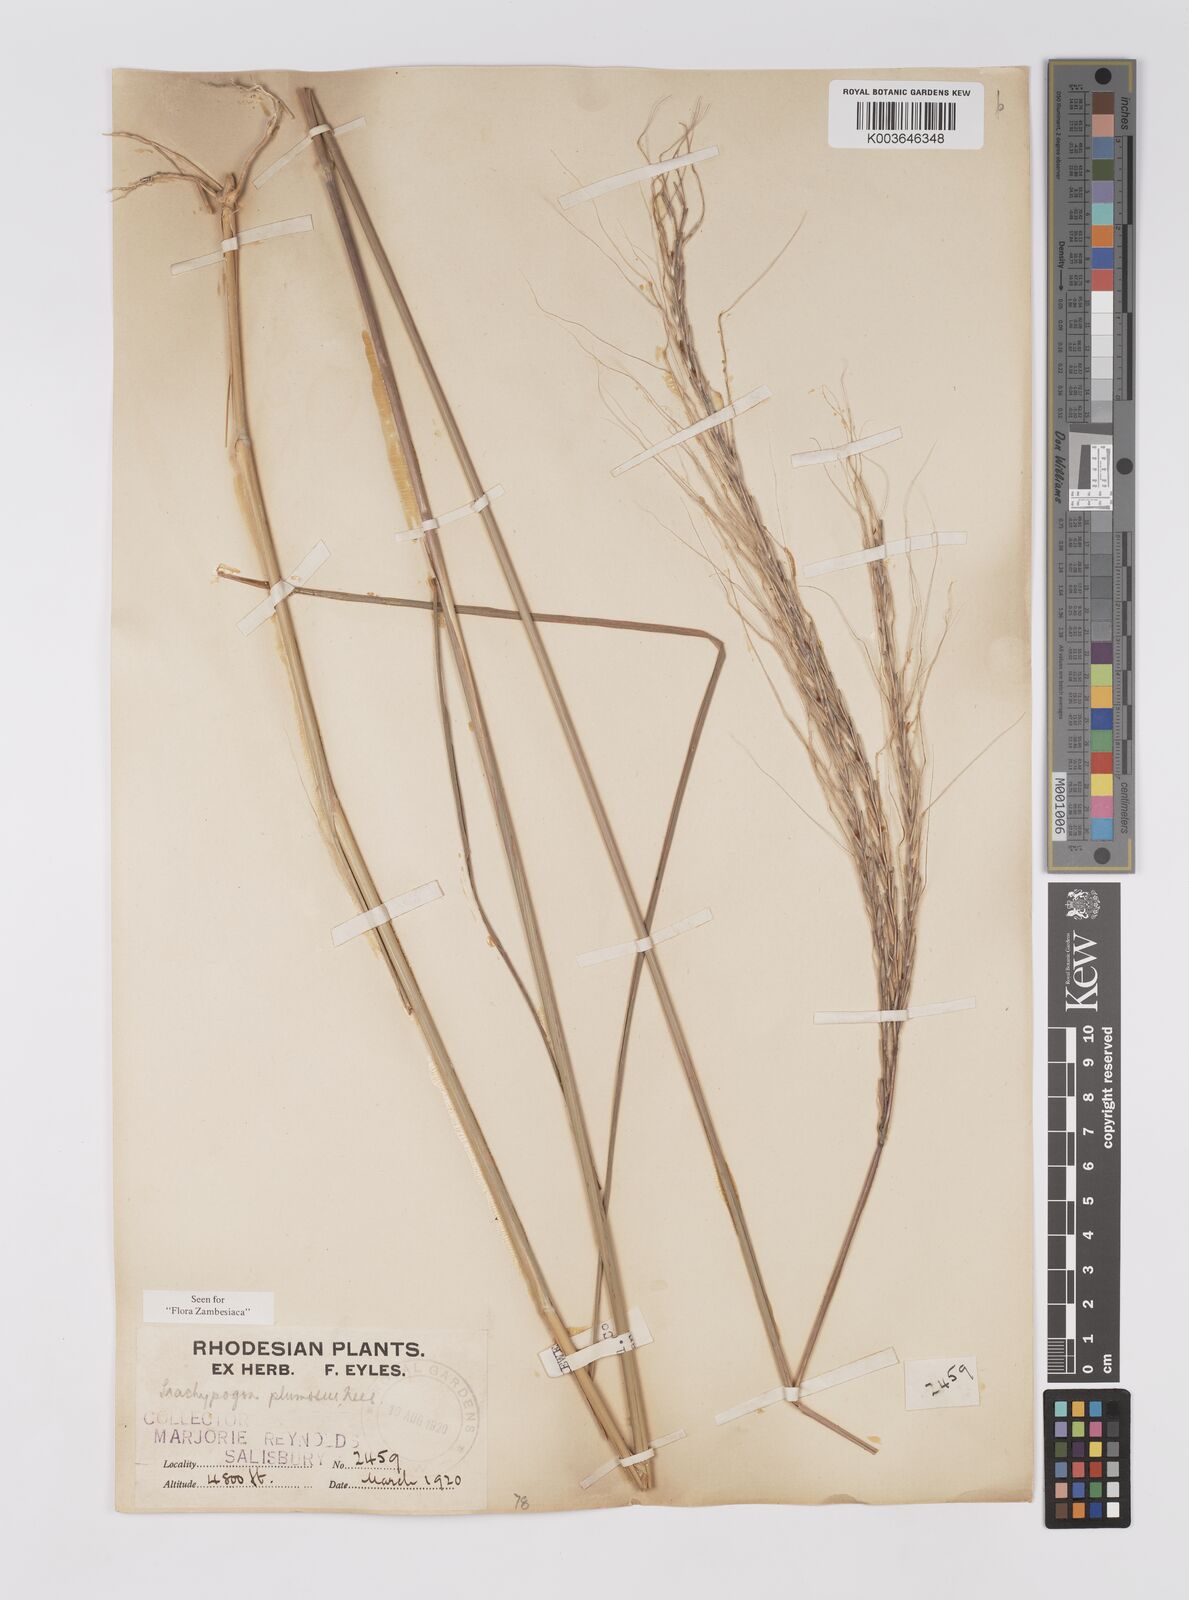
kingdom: Plantae
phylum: Tracheophyta
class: Liliopsida
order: Poales
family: Poaceae
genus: Trachypogon
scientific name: Trachypogon spicatus
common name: Crinkle-awn
